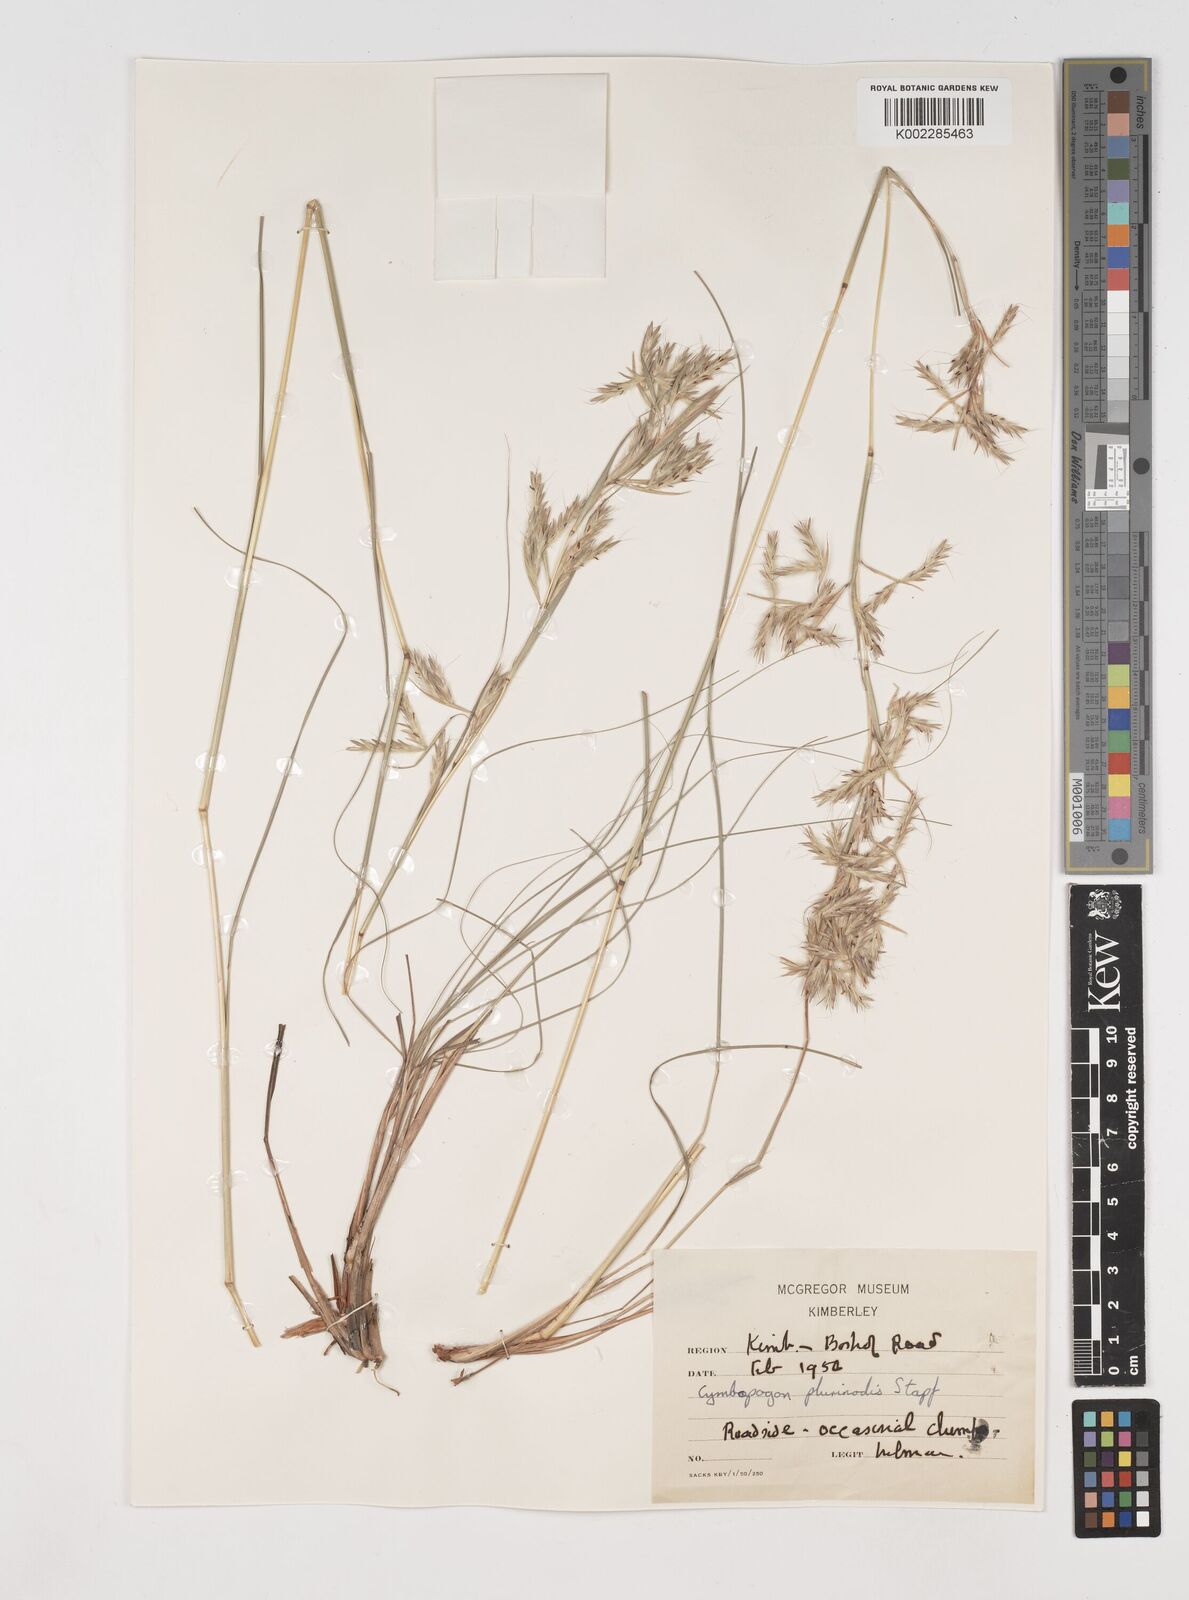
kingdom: Plantae
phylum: Tracheophyta
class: Liliopsida
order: Poales
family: Poaceae
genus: Cymbopogon
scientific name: Cymbopogon pospischilii
